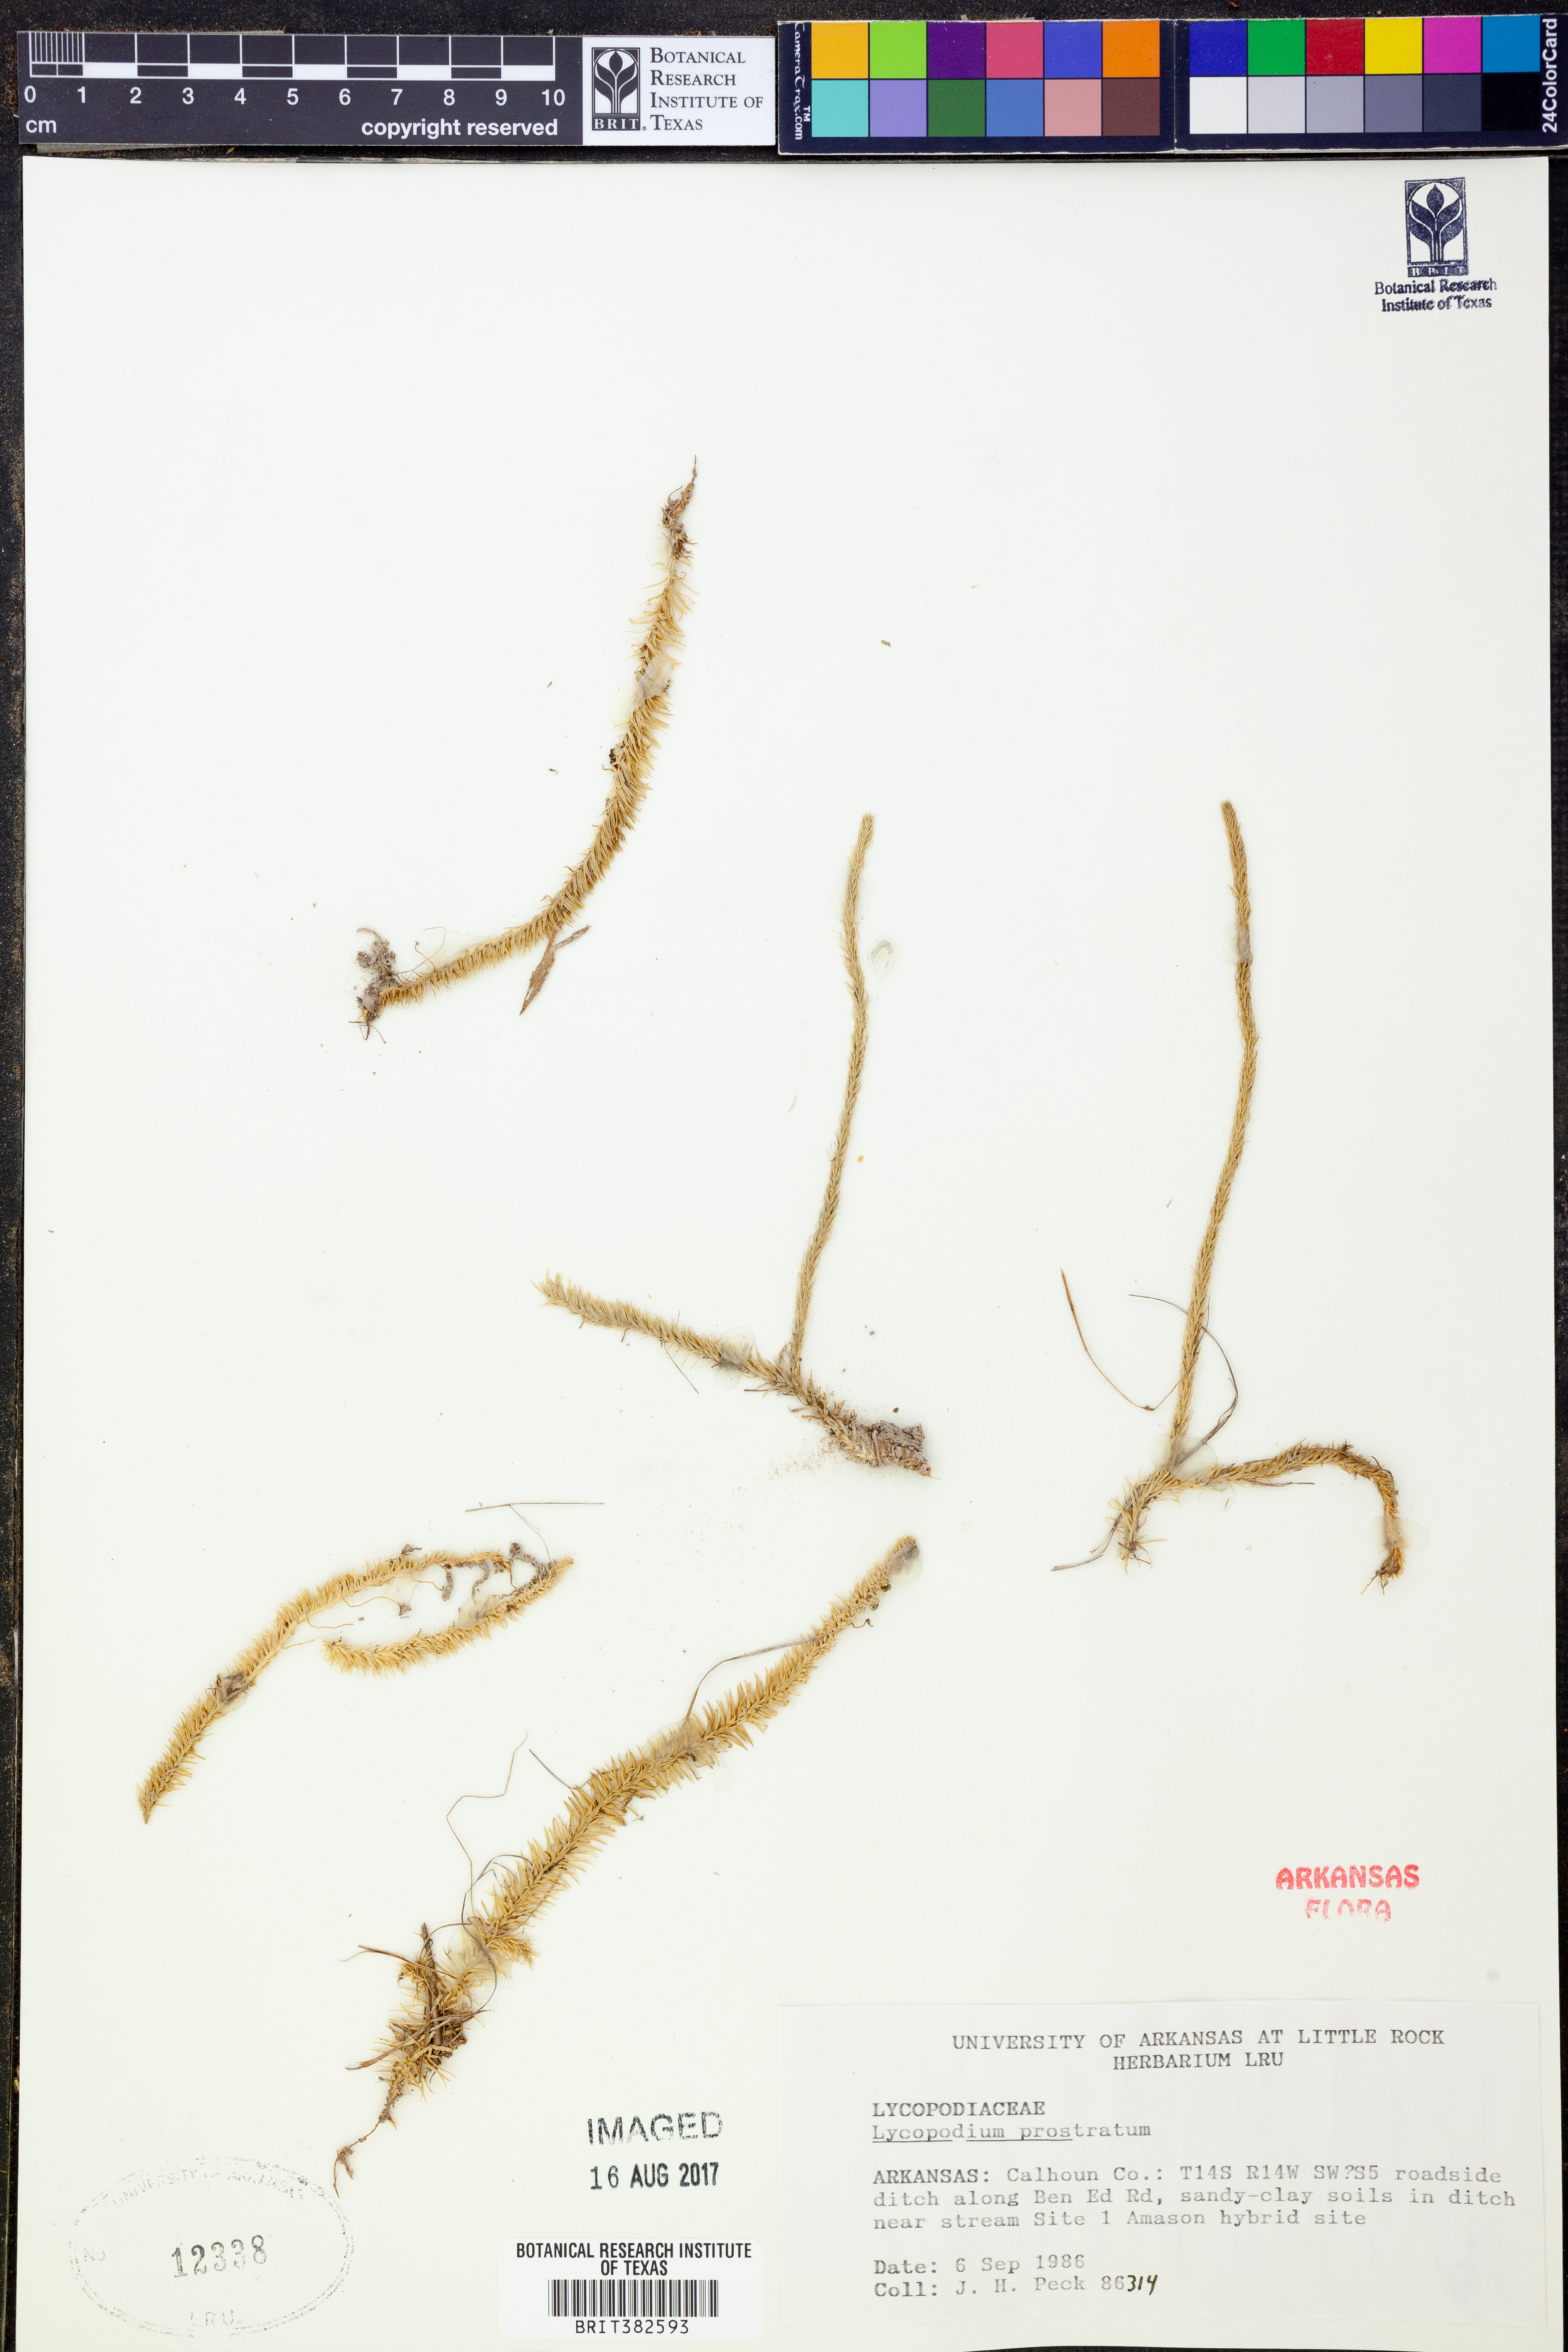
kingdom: Plantae
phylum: Tracheophyta
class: Lycopodiopsida
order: Lycopodiales
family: Lycopodiaceae
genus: Lycopodiella
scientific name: Lycopodiella prostrata
